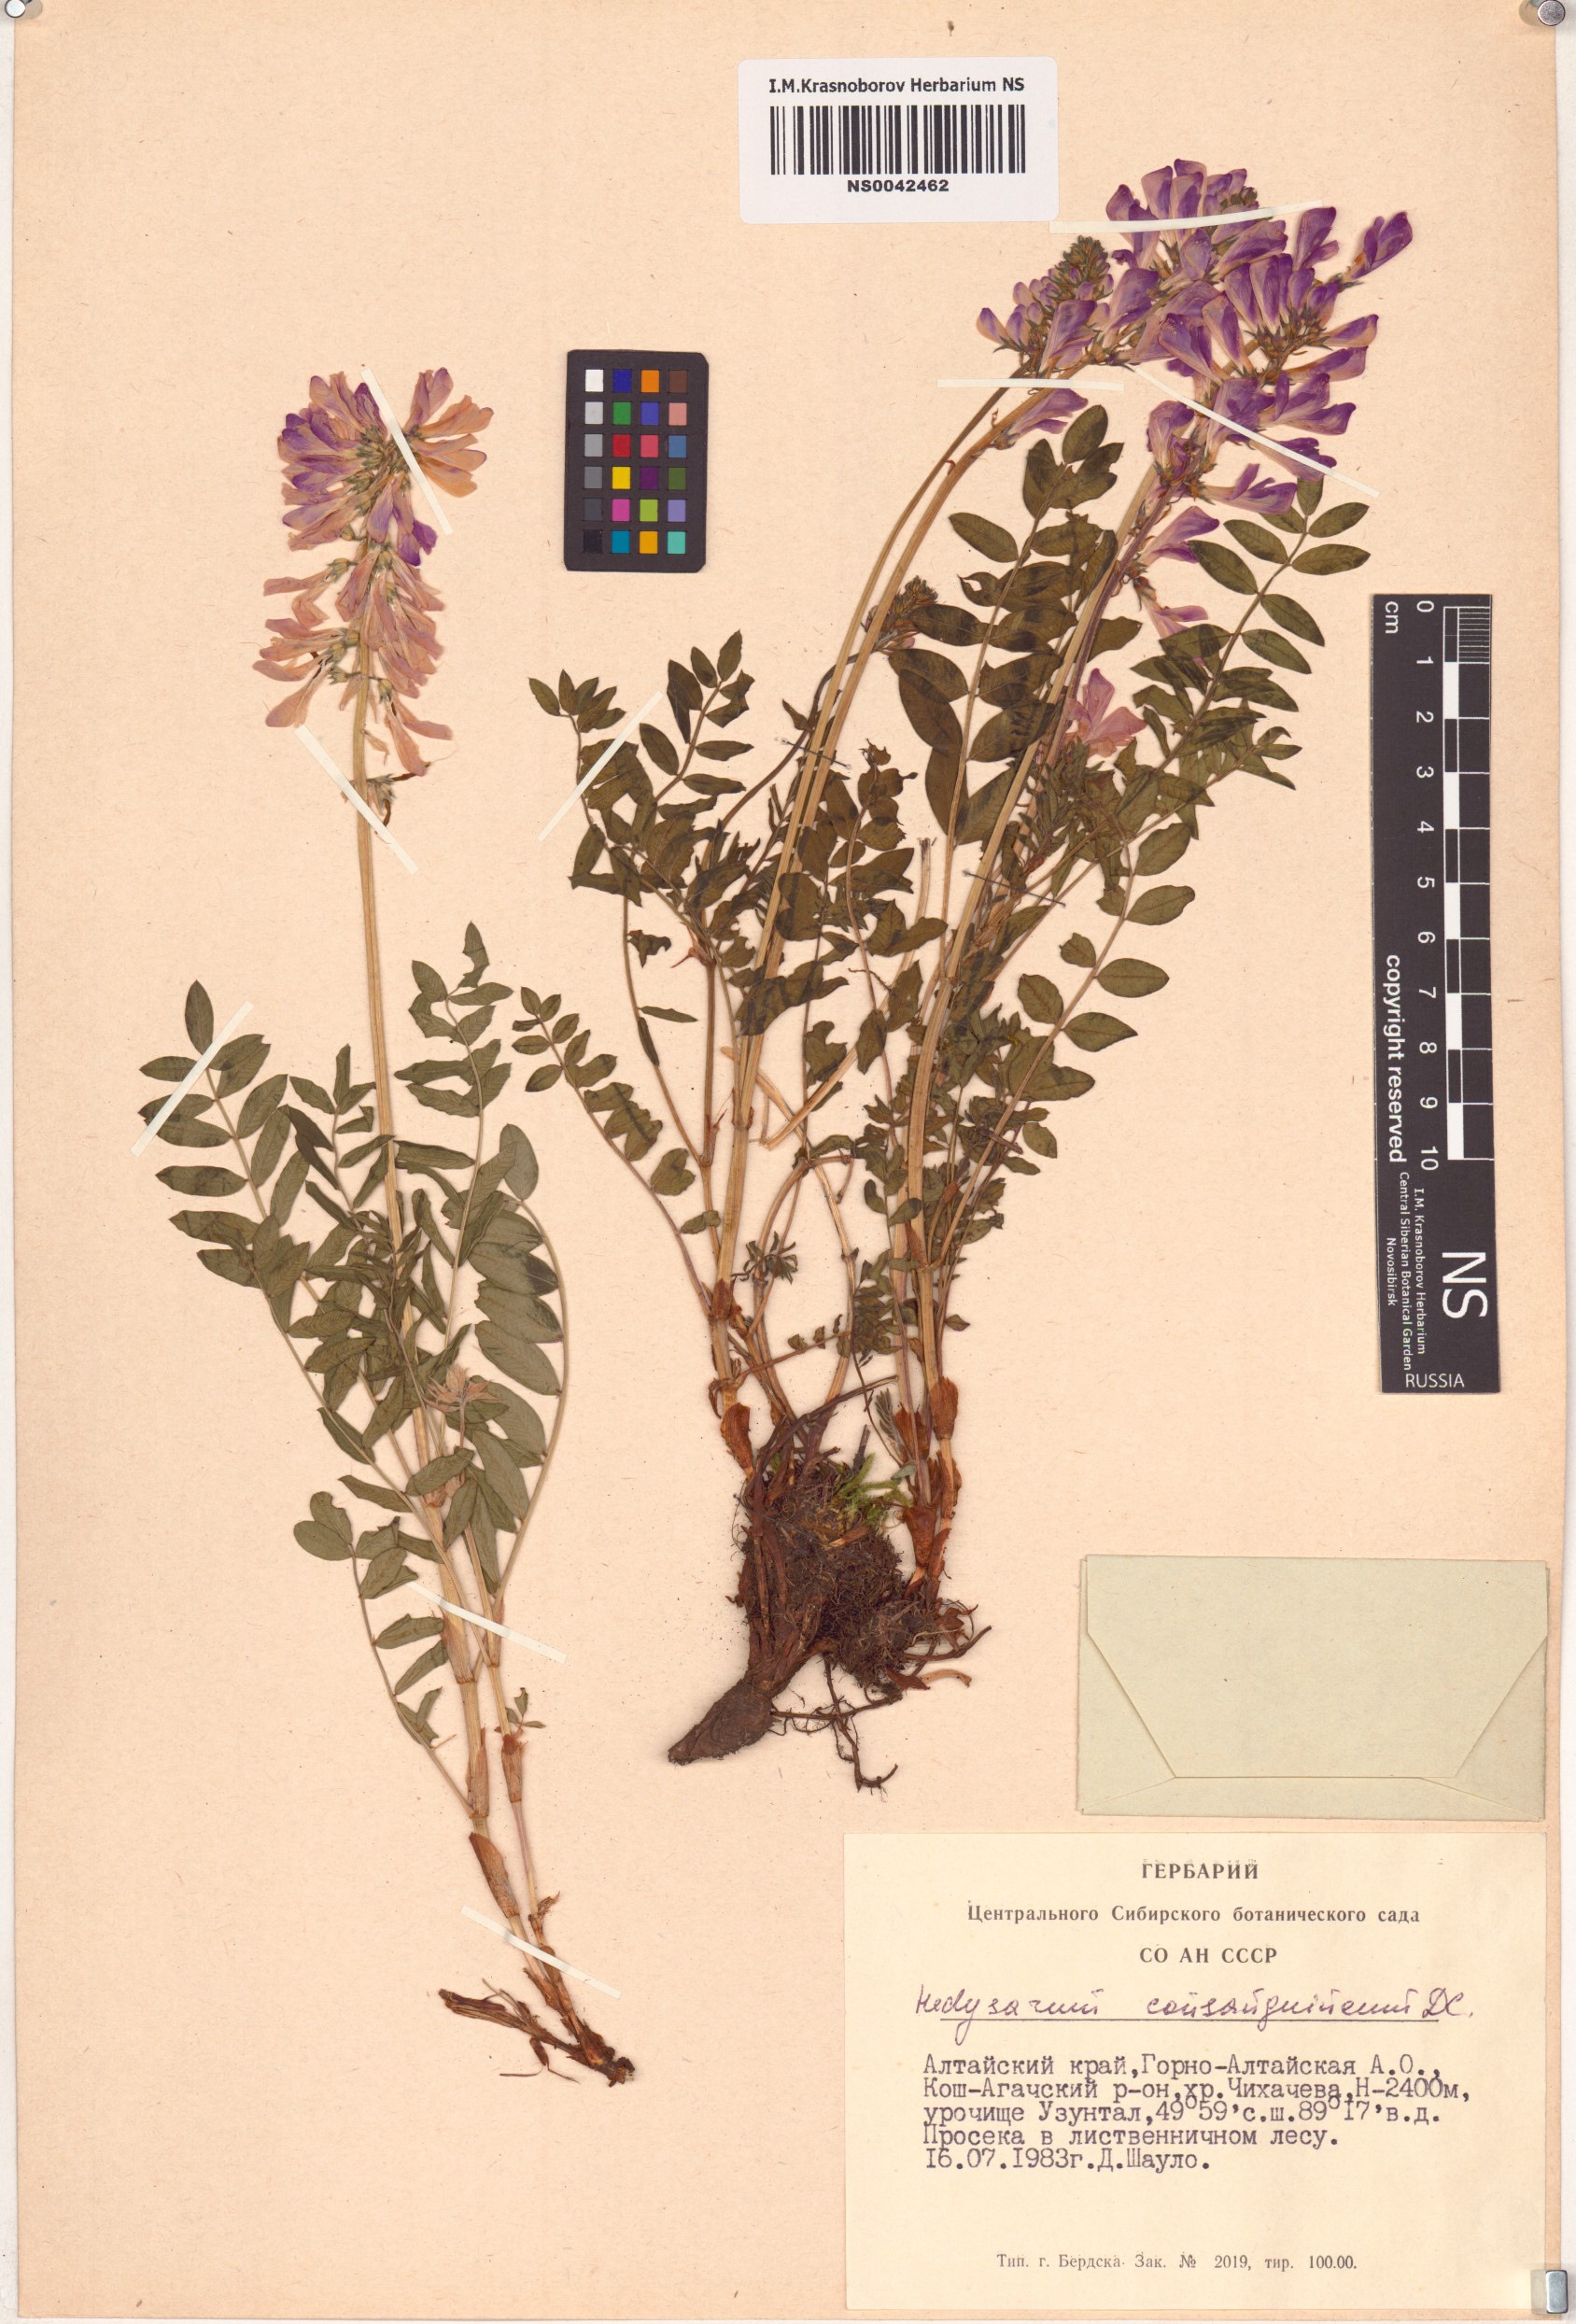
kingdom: Plantae
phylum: Tracheophyta
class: Magnoliopsida
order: Fabales
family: Fabaceae
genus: Hedysarum
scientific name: Hedysarum consanguineum
